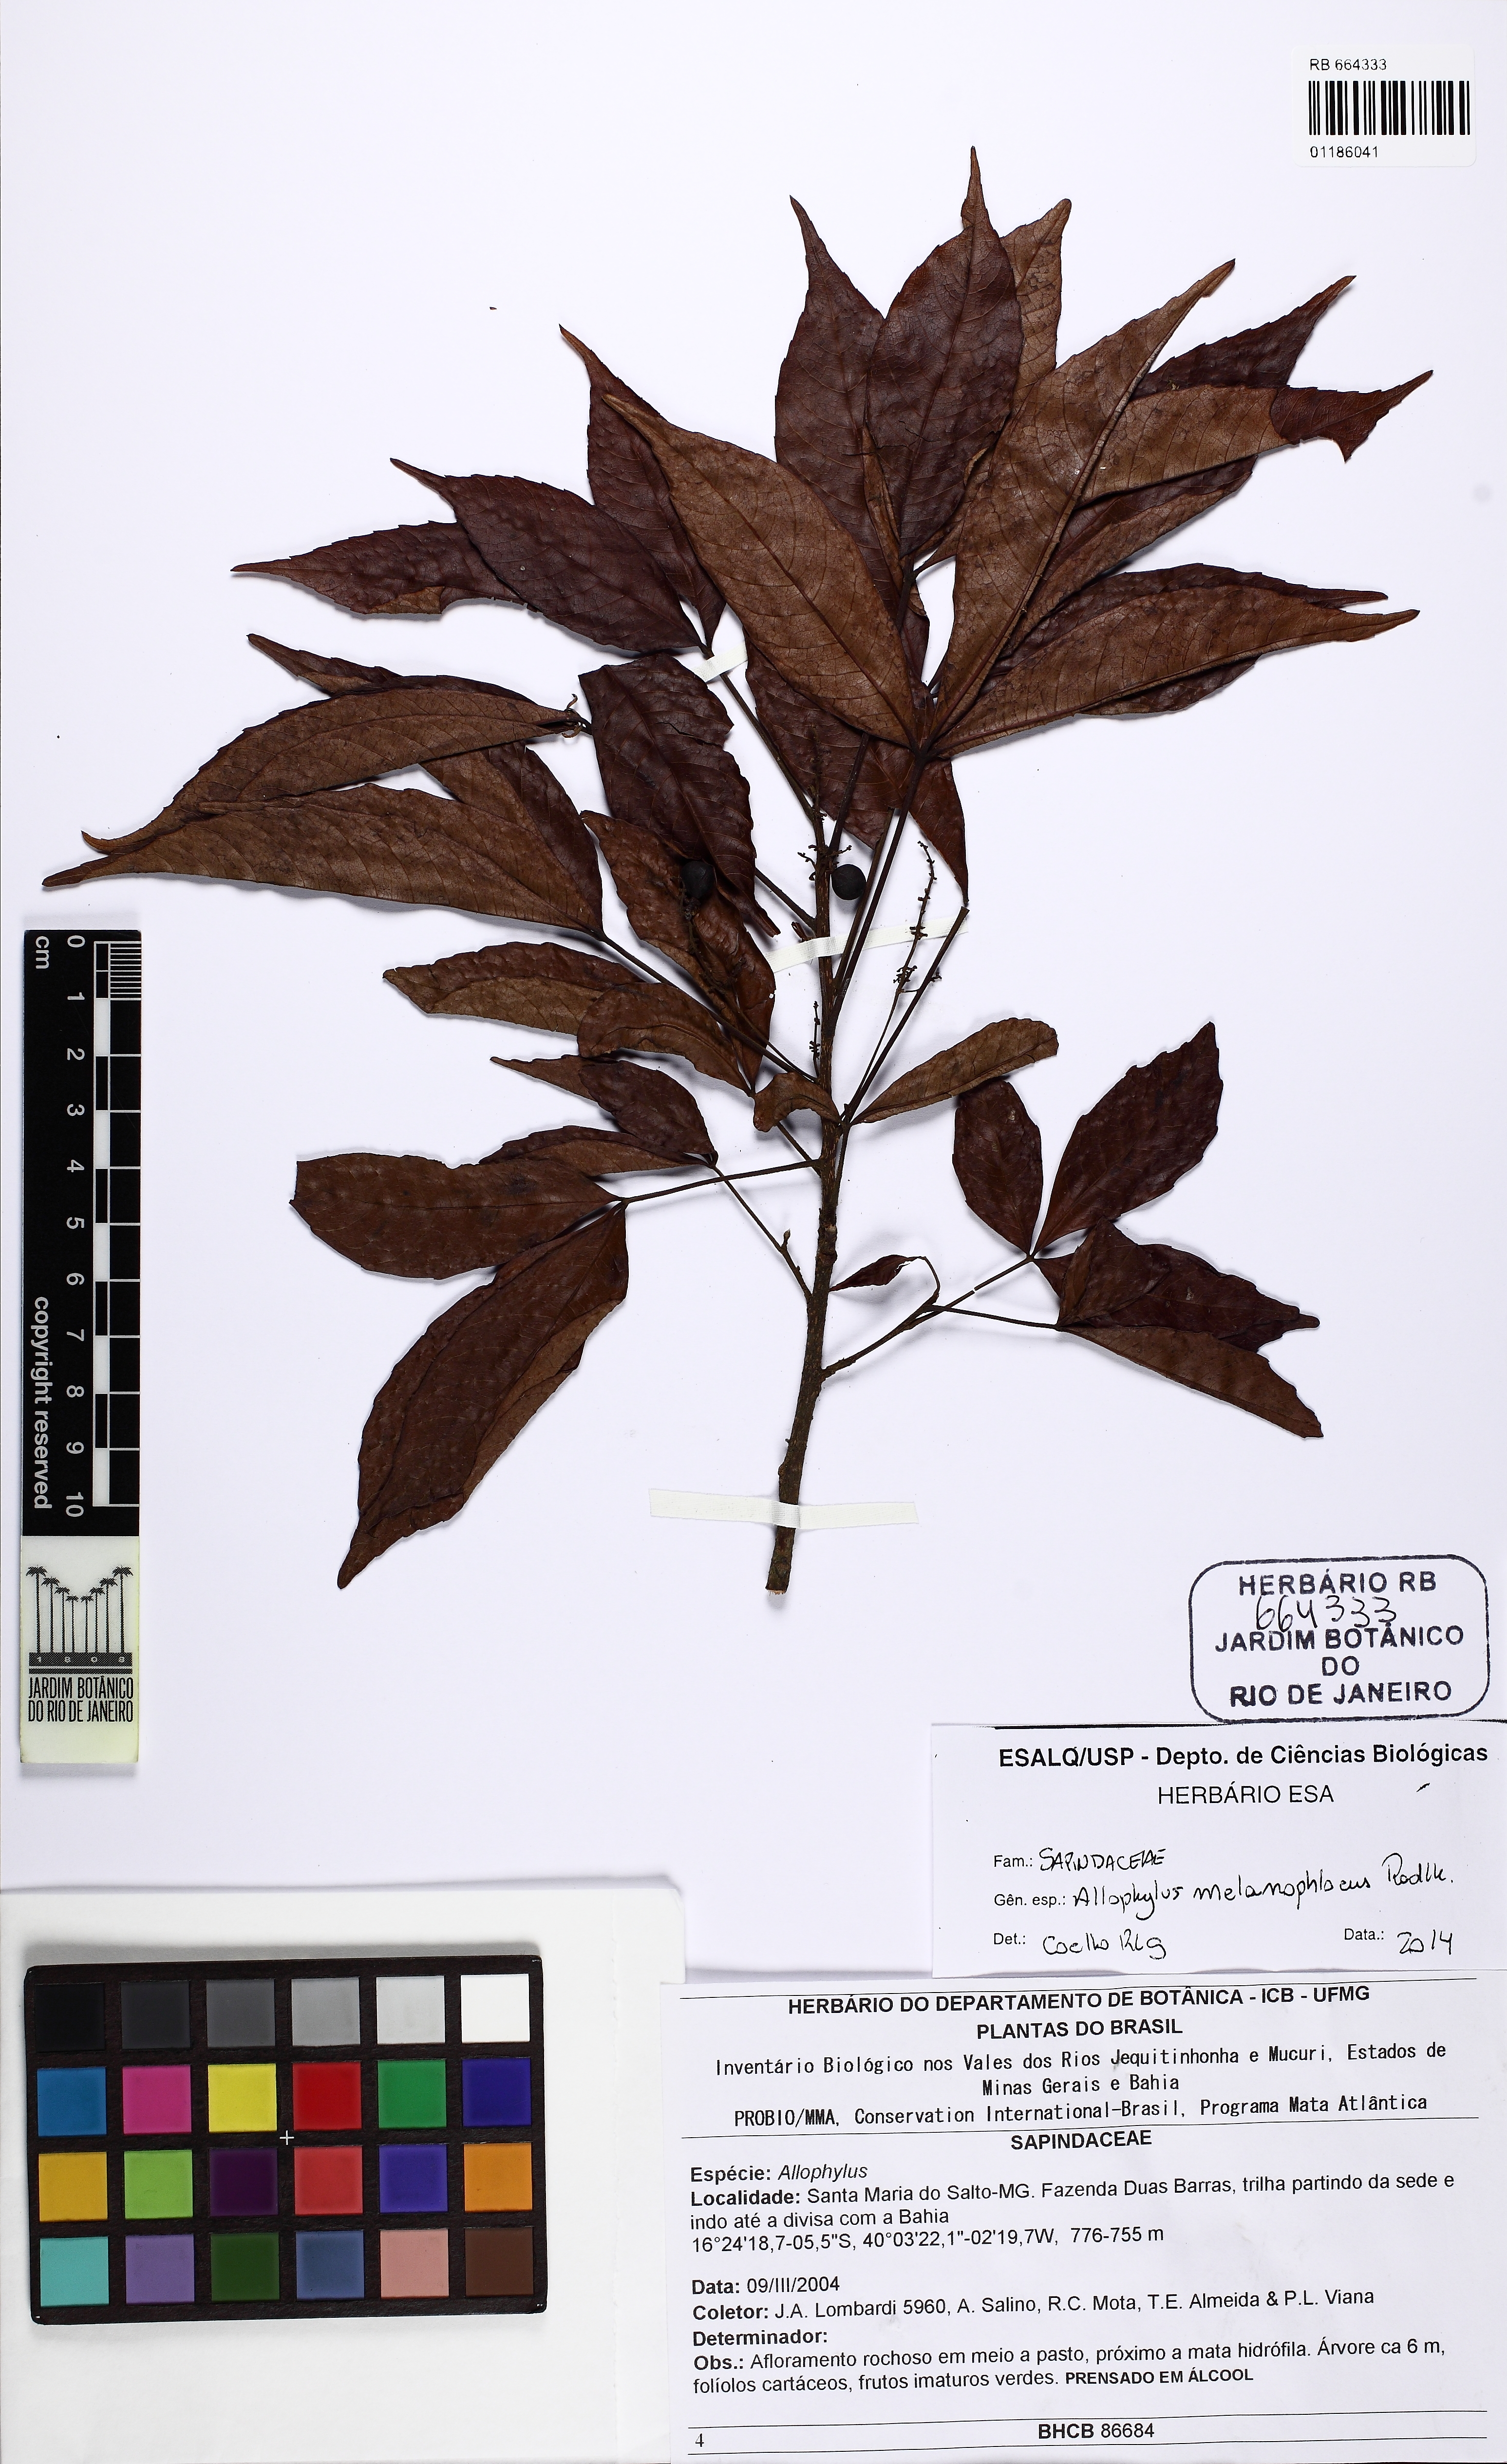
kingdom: Plantae
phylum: Tracheophyta
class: Magnoliopsida
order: Sapindales
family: Sapindaceae
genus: Allophylus
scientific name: Allophylus melanophloeus
